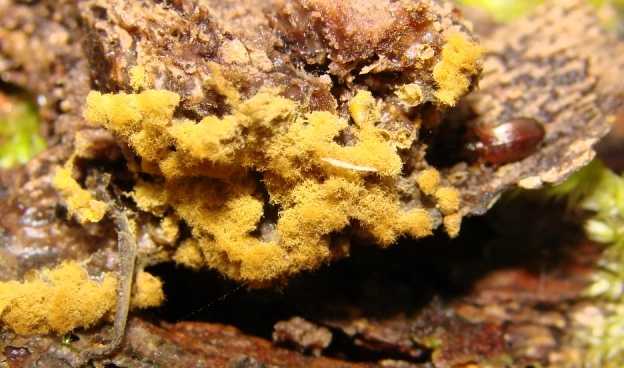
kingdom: Protozoa
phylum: Mycetozoa
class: Myxomycetes
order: Trichiales
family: Trichiaceae
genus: Trichia
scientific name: Trichia varia
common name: foranderlig hårbold
